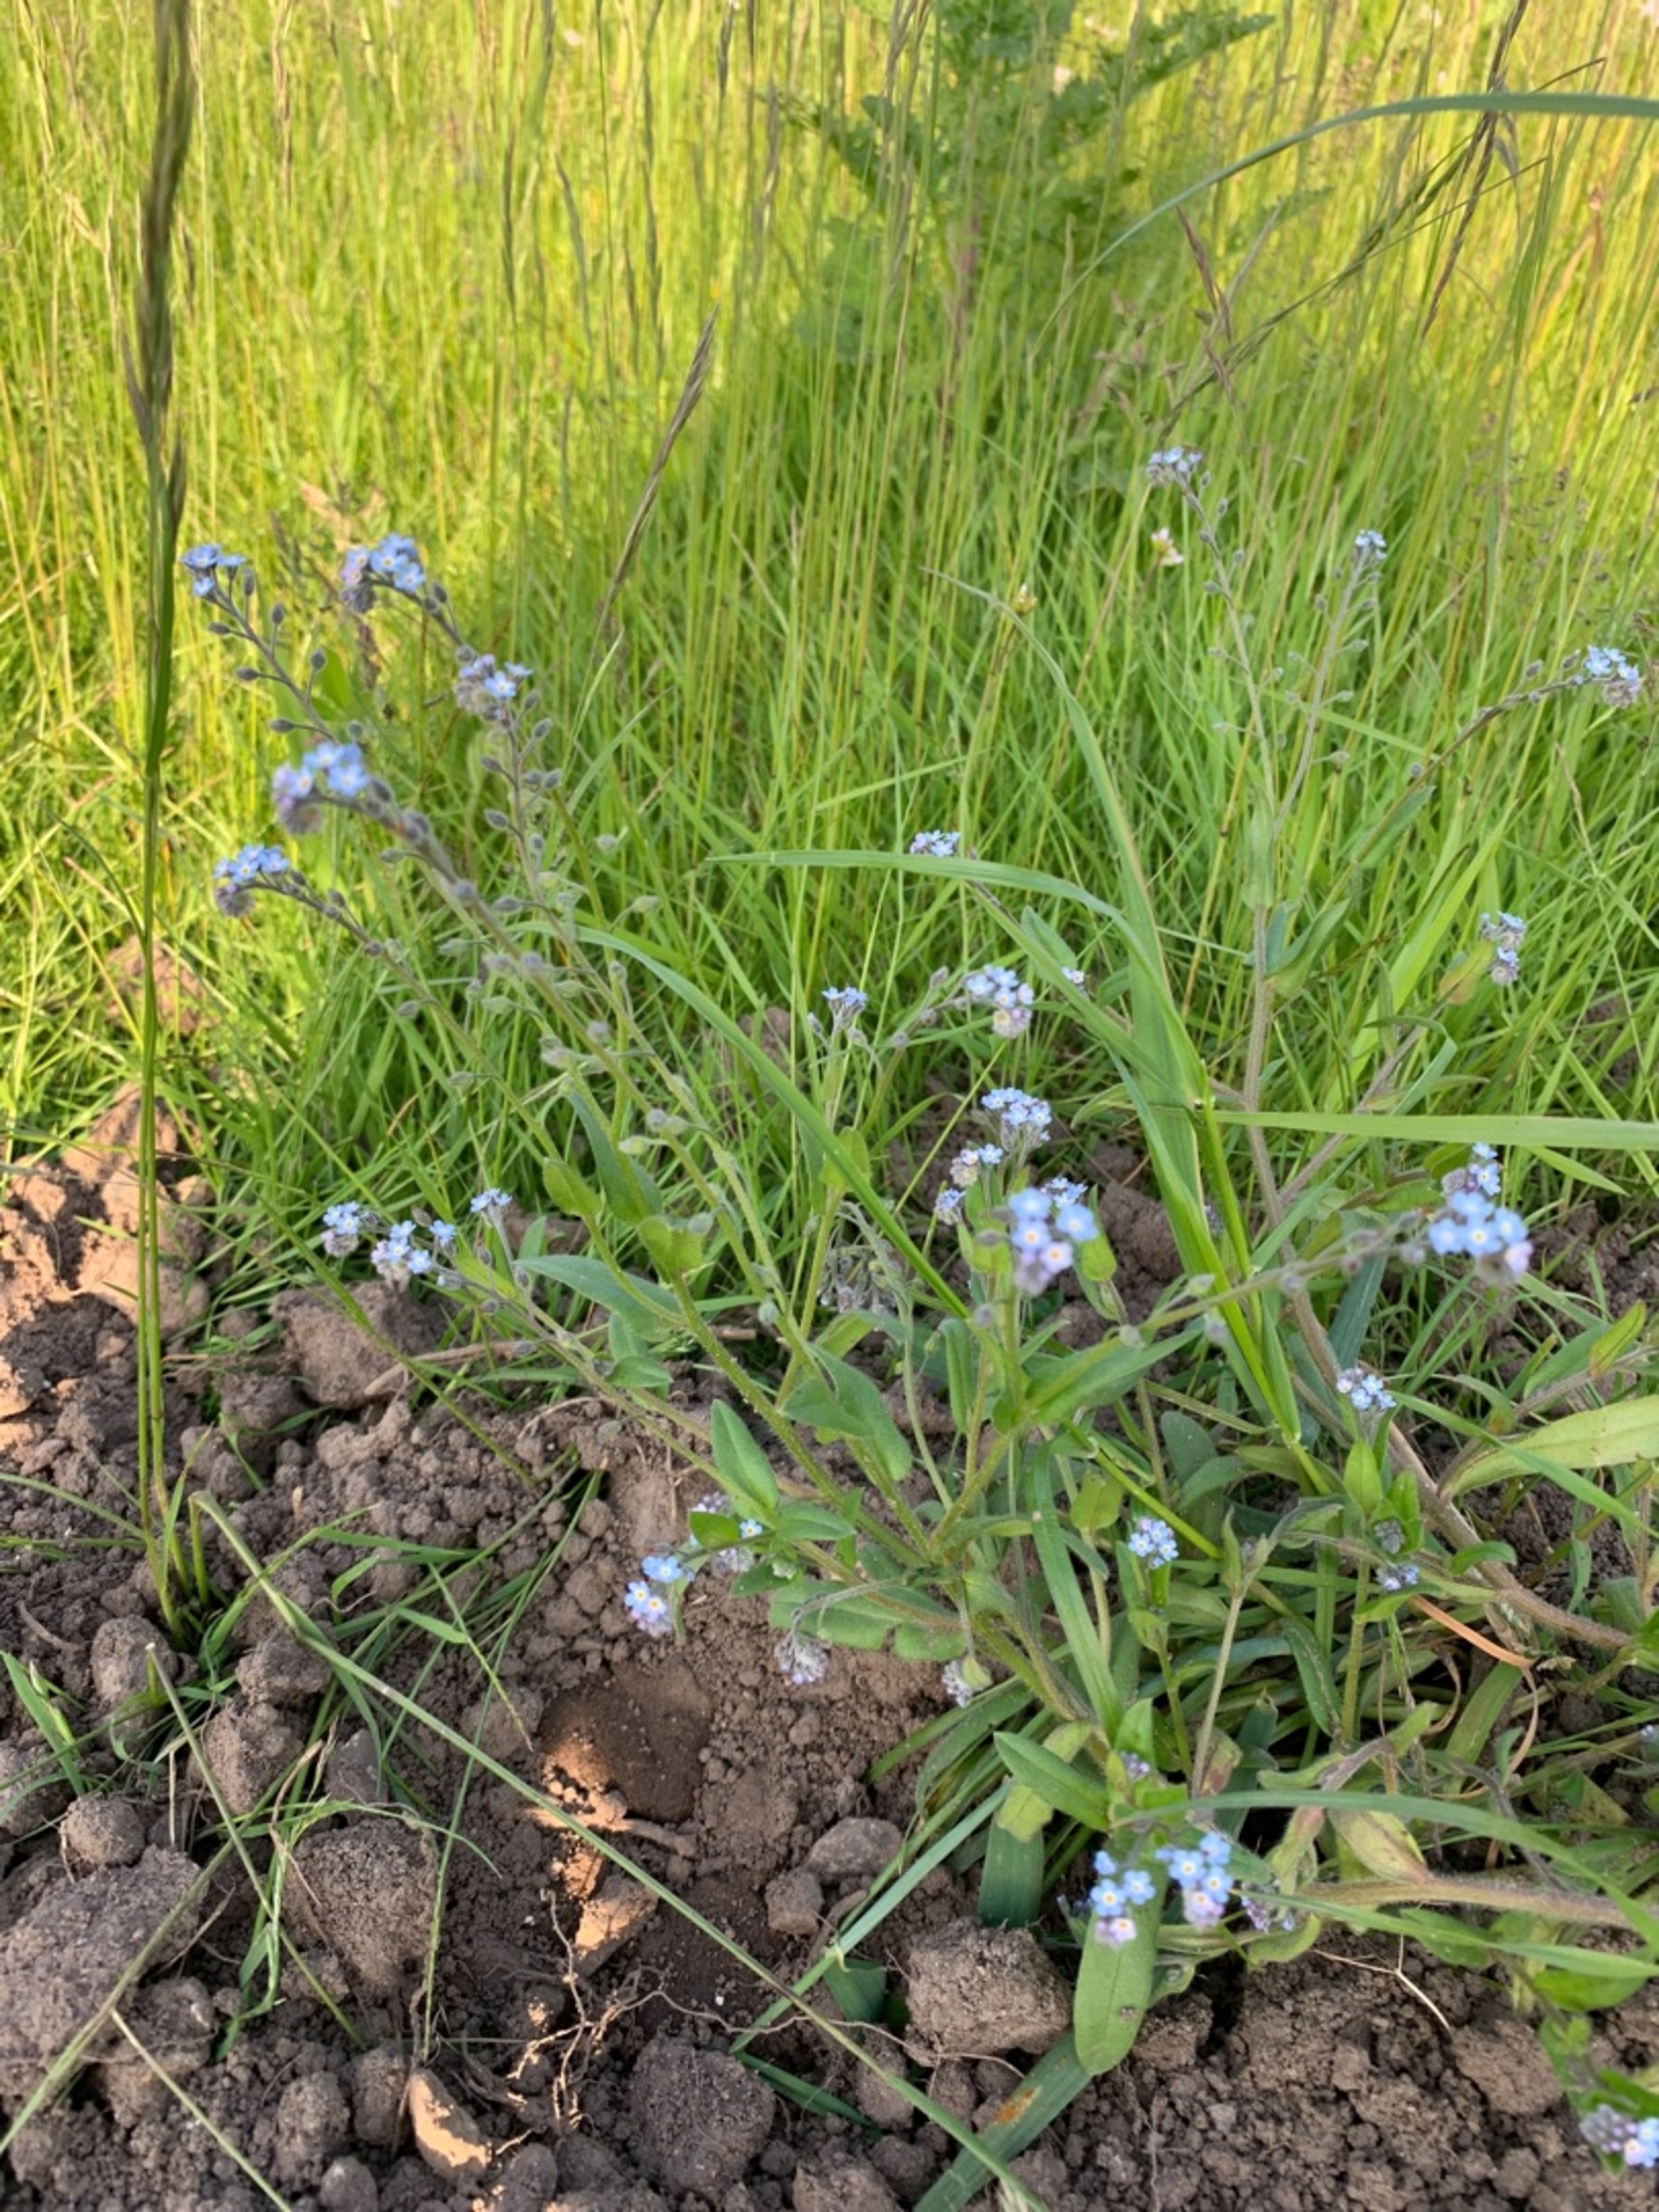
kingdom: Plantae
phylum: Tracheophyta
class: Magnoliopsida
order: Boraginales
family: Boraginaceae
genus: Myosotis
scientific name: Myosotis arvensis
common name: Mark-forglemmigej
